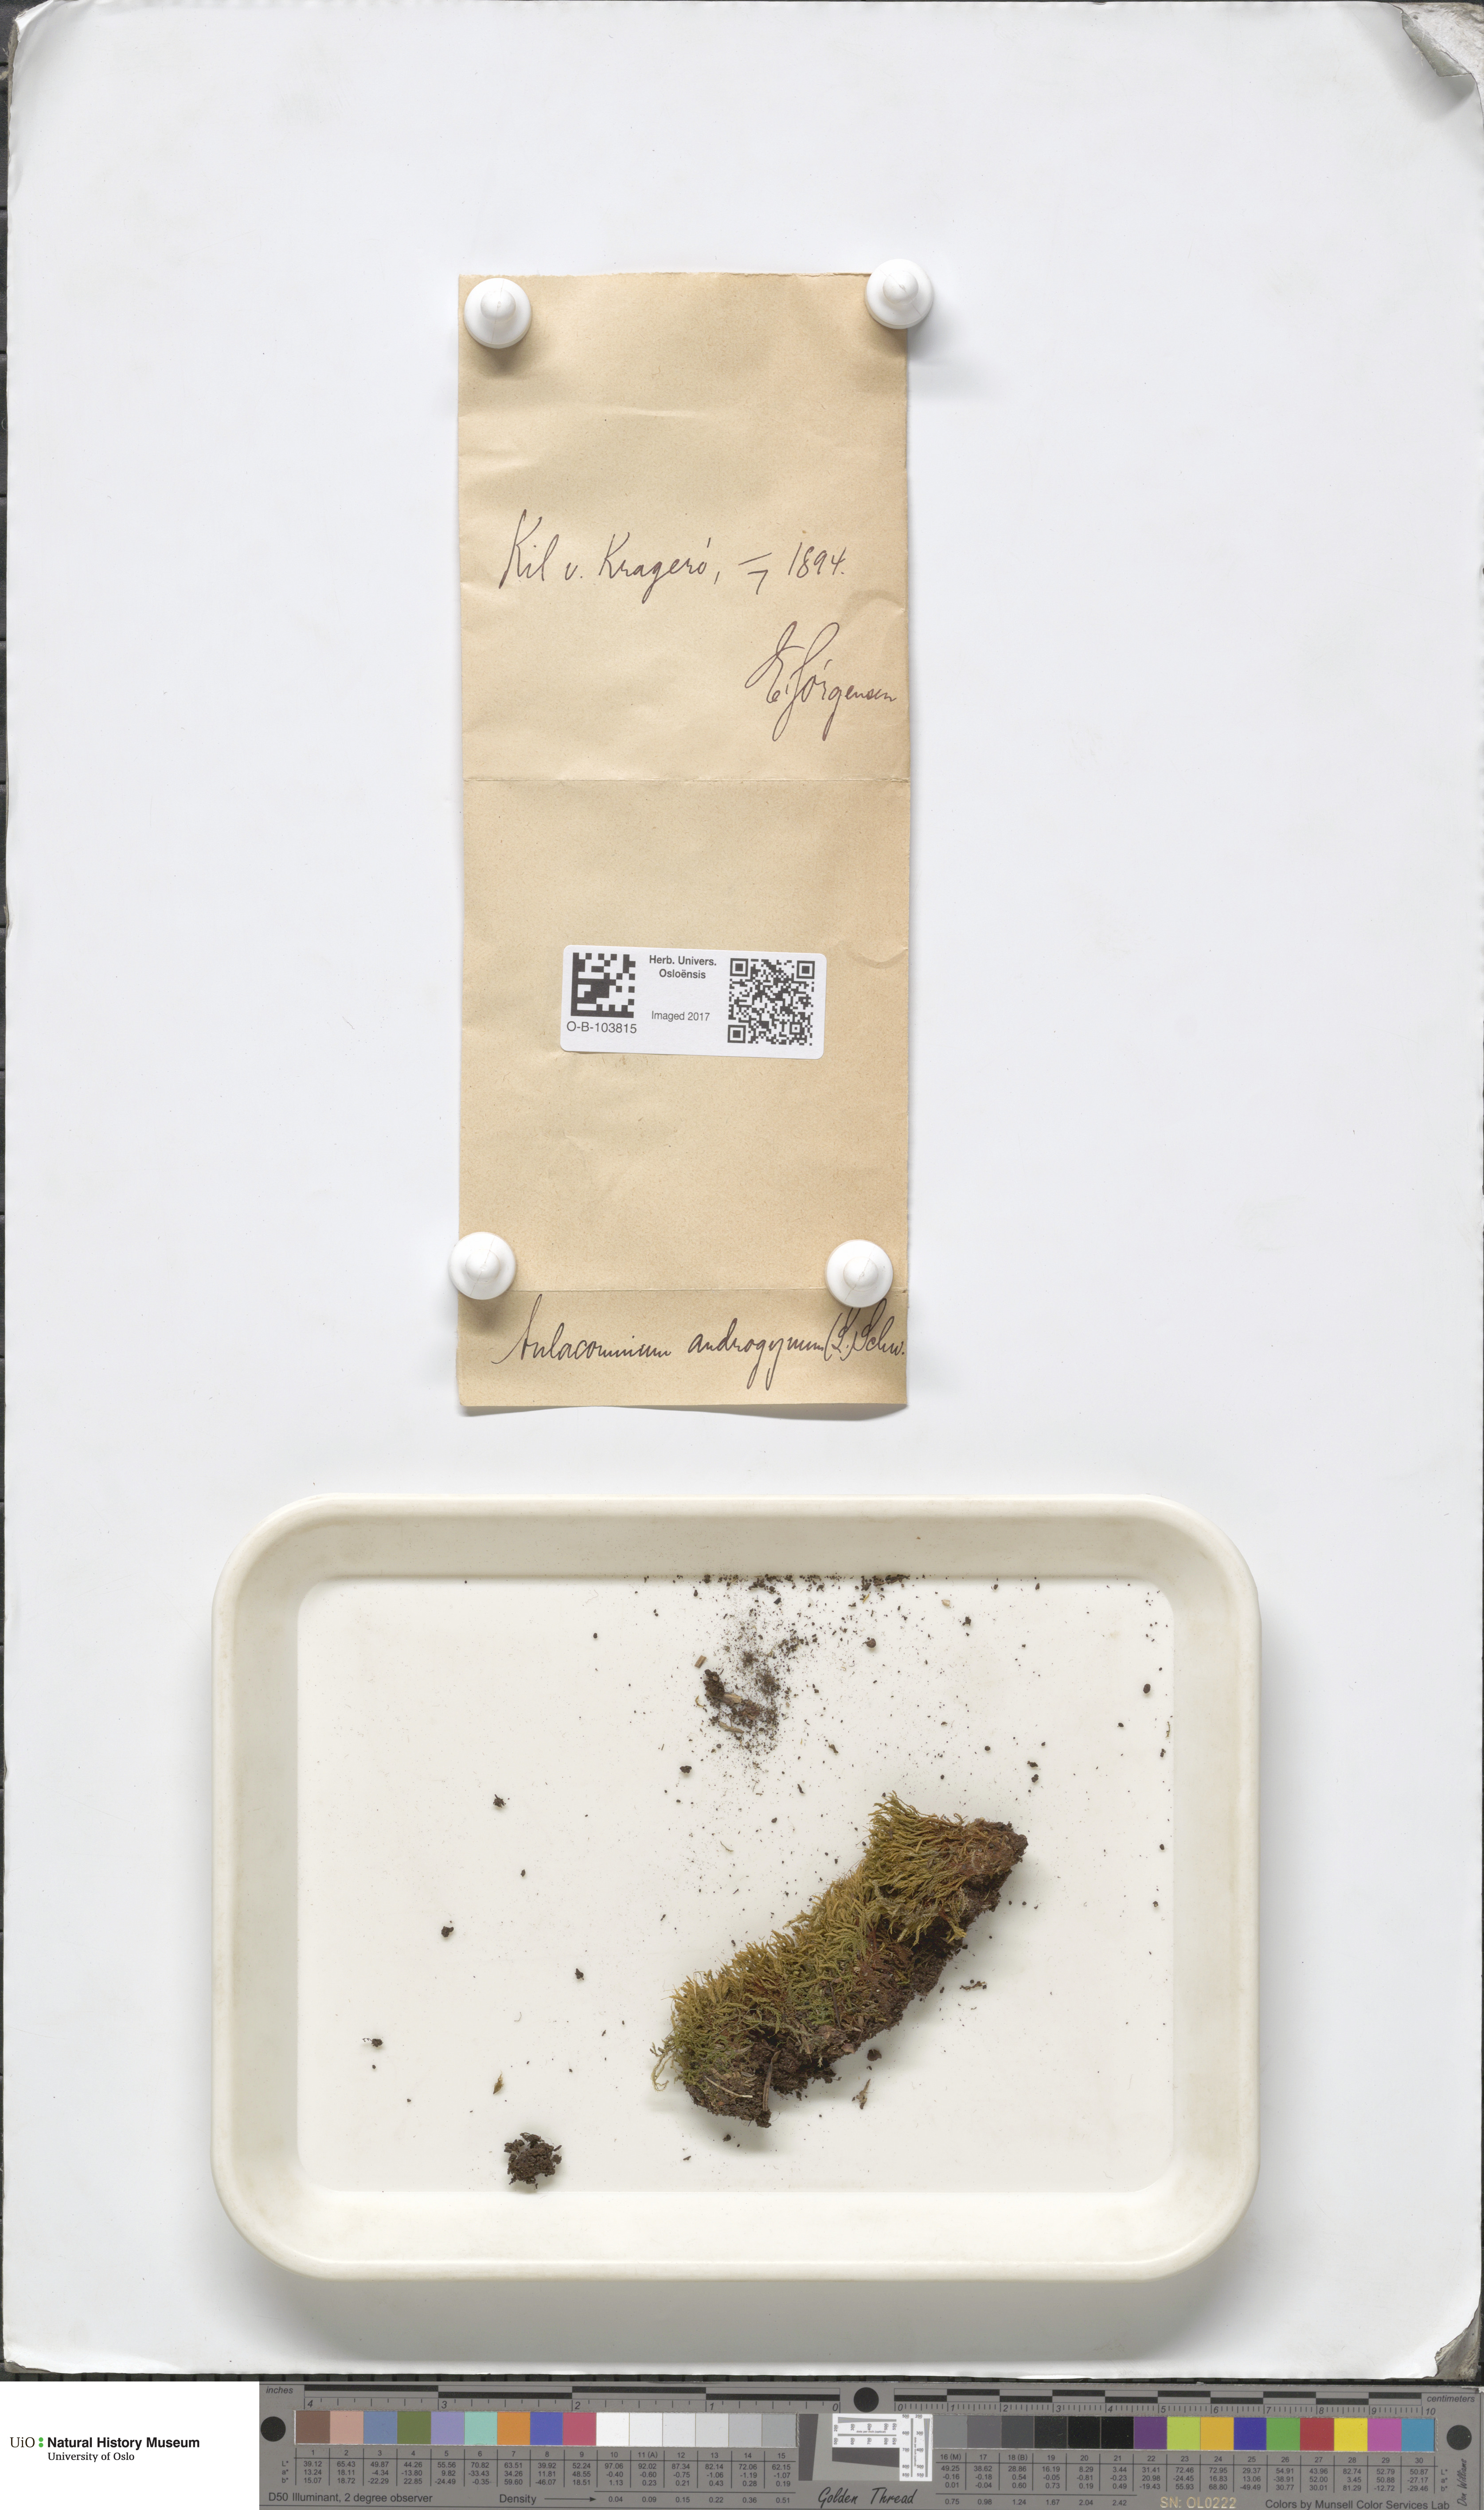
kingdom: Plantae
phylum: Bryophyta
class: Bryopsida
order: Aulacomniales
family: Aulacomniaceae
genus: Aulacomnium
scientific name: Aulacomnium androgynum
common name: Little groove moss
